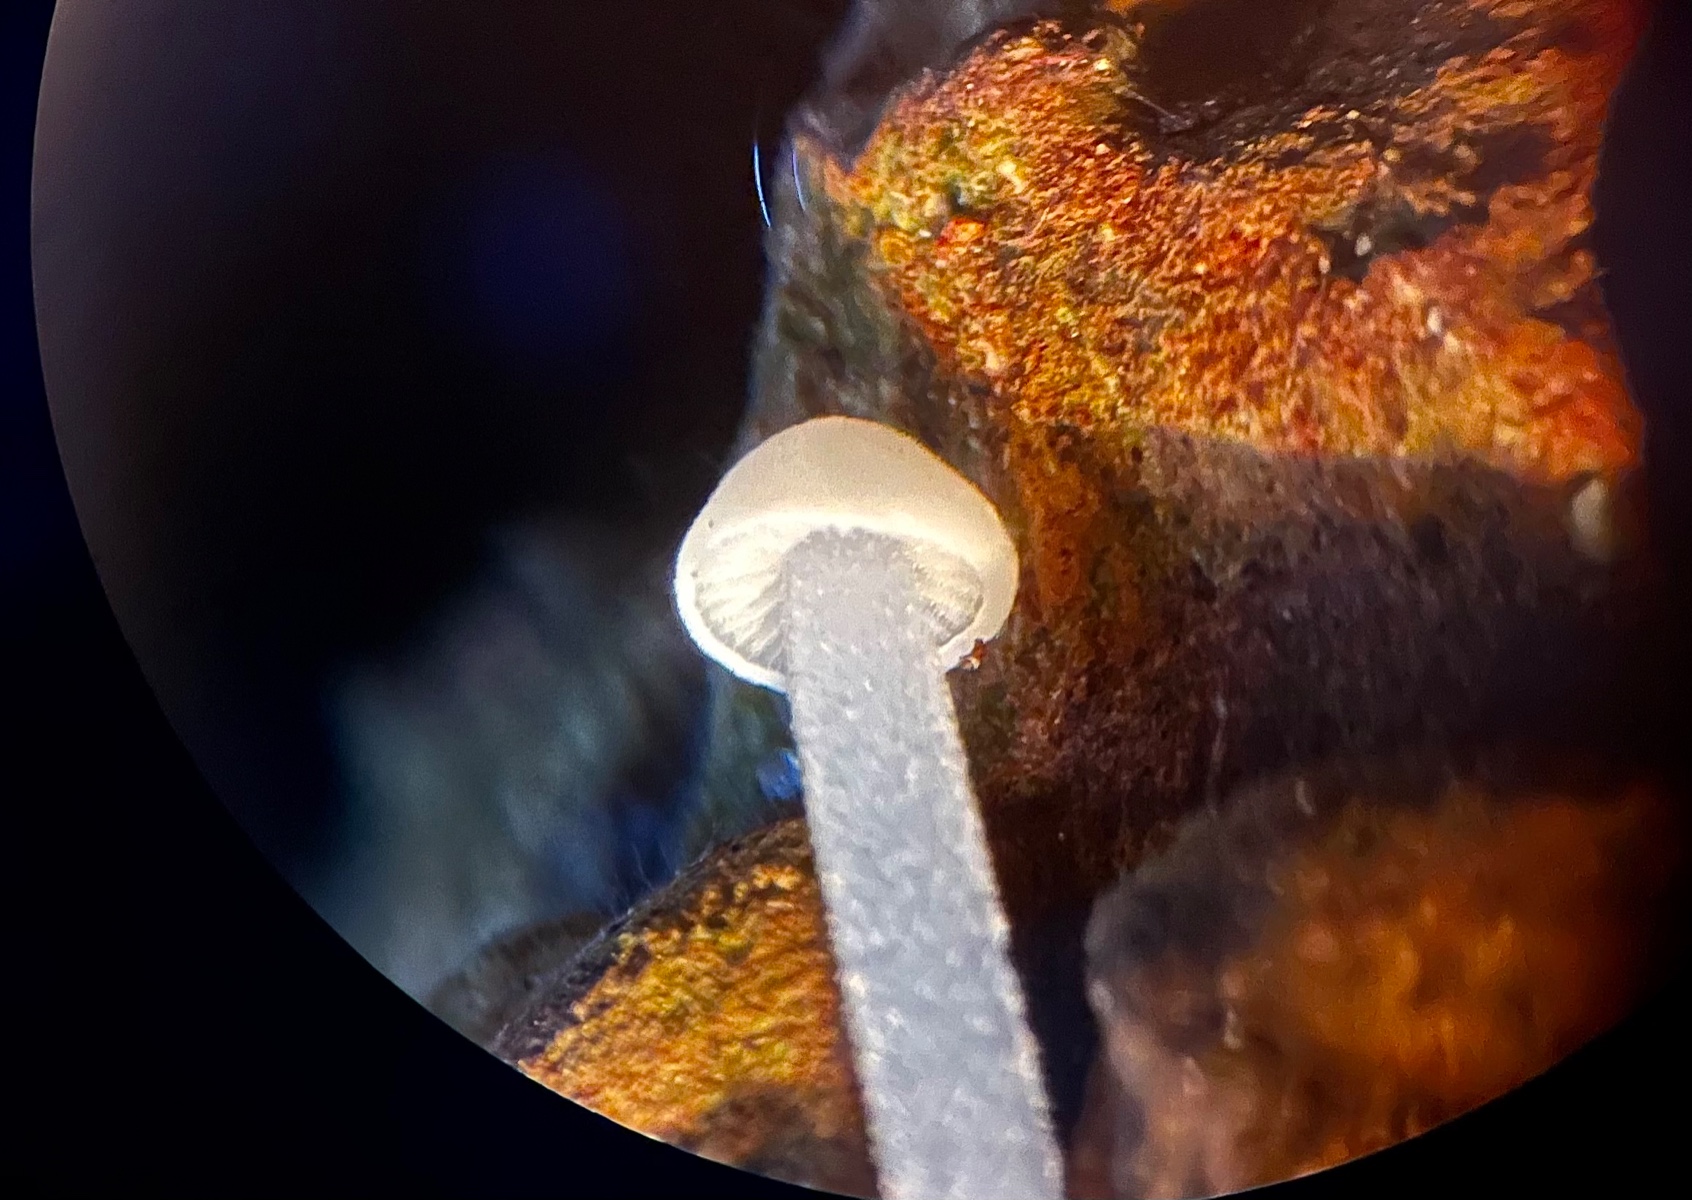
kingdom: Fungi
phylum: Basidiomycota
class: Agaricomycetes
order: Agaricales
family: Physalacriaceae
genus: Strobilurus
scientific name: Strobilurus
